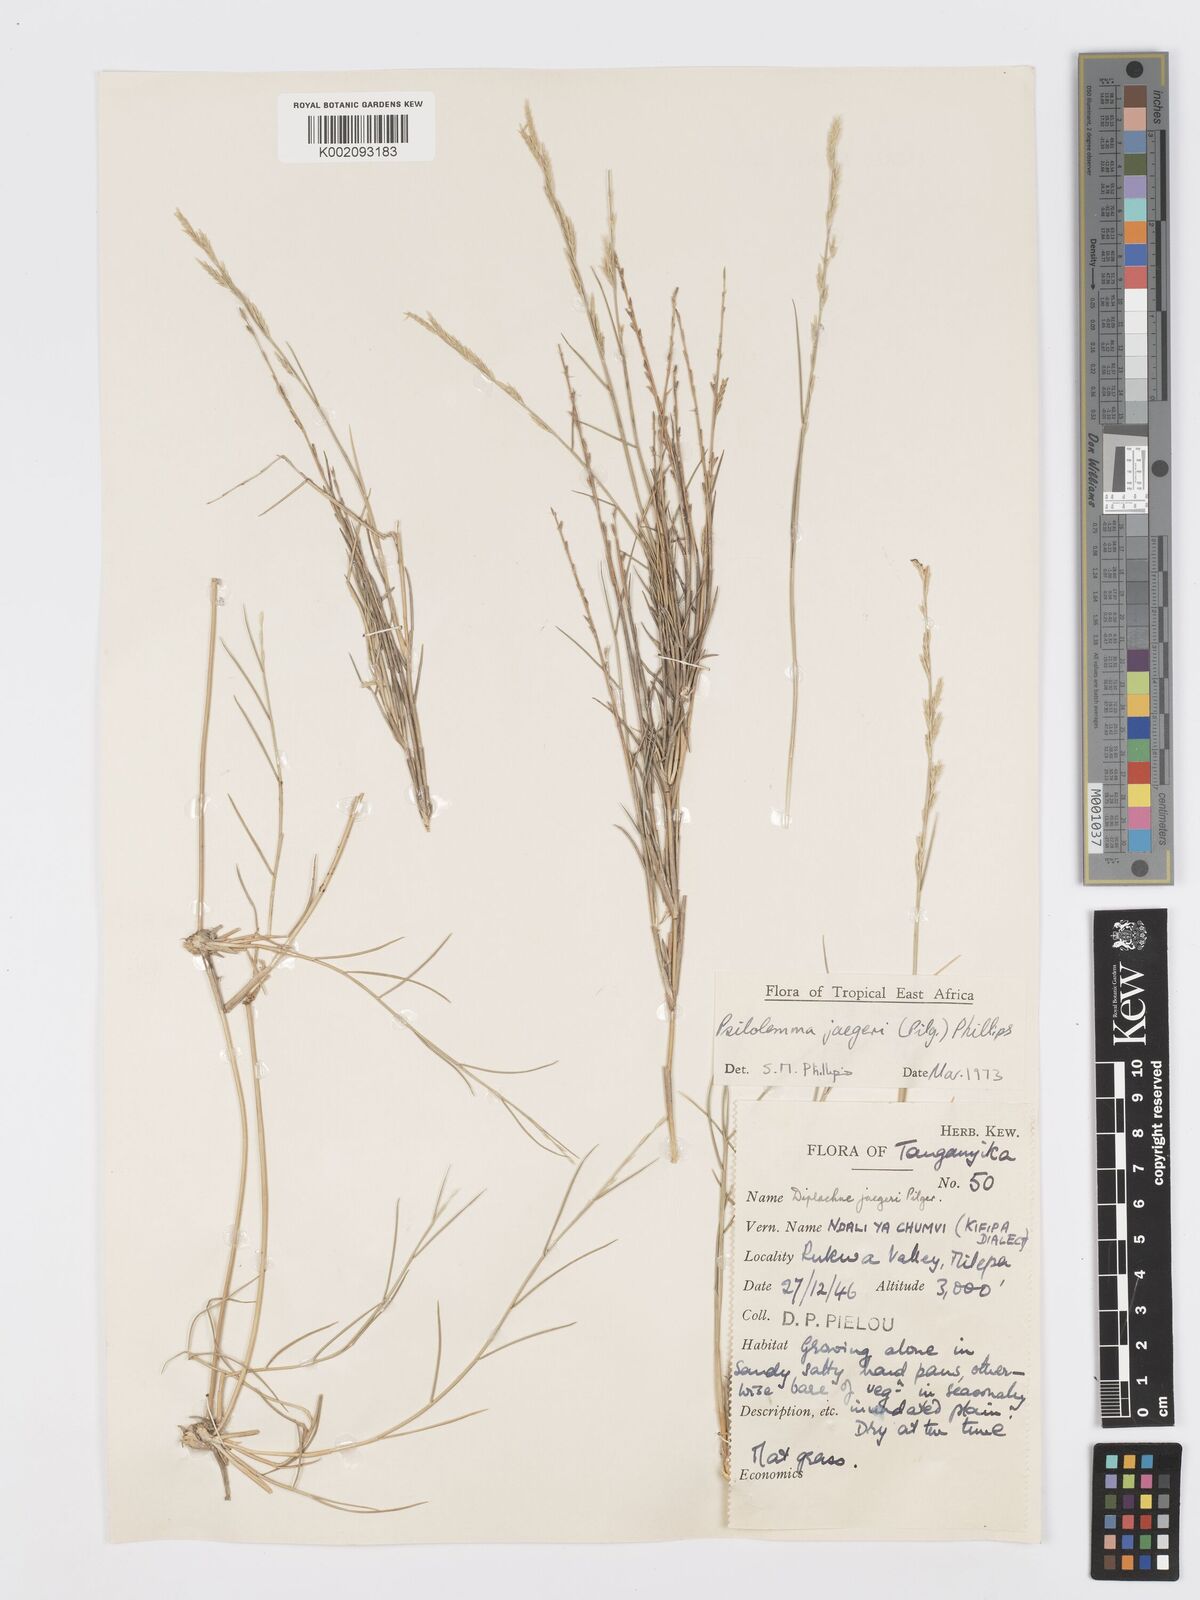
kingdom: Plantae
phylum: Tracheophyta
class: Liliopsida
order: Poales
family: Poaceae
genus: Psilolemma
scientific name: Psilolemma jaegeri
